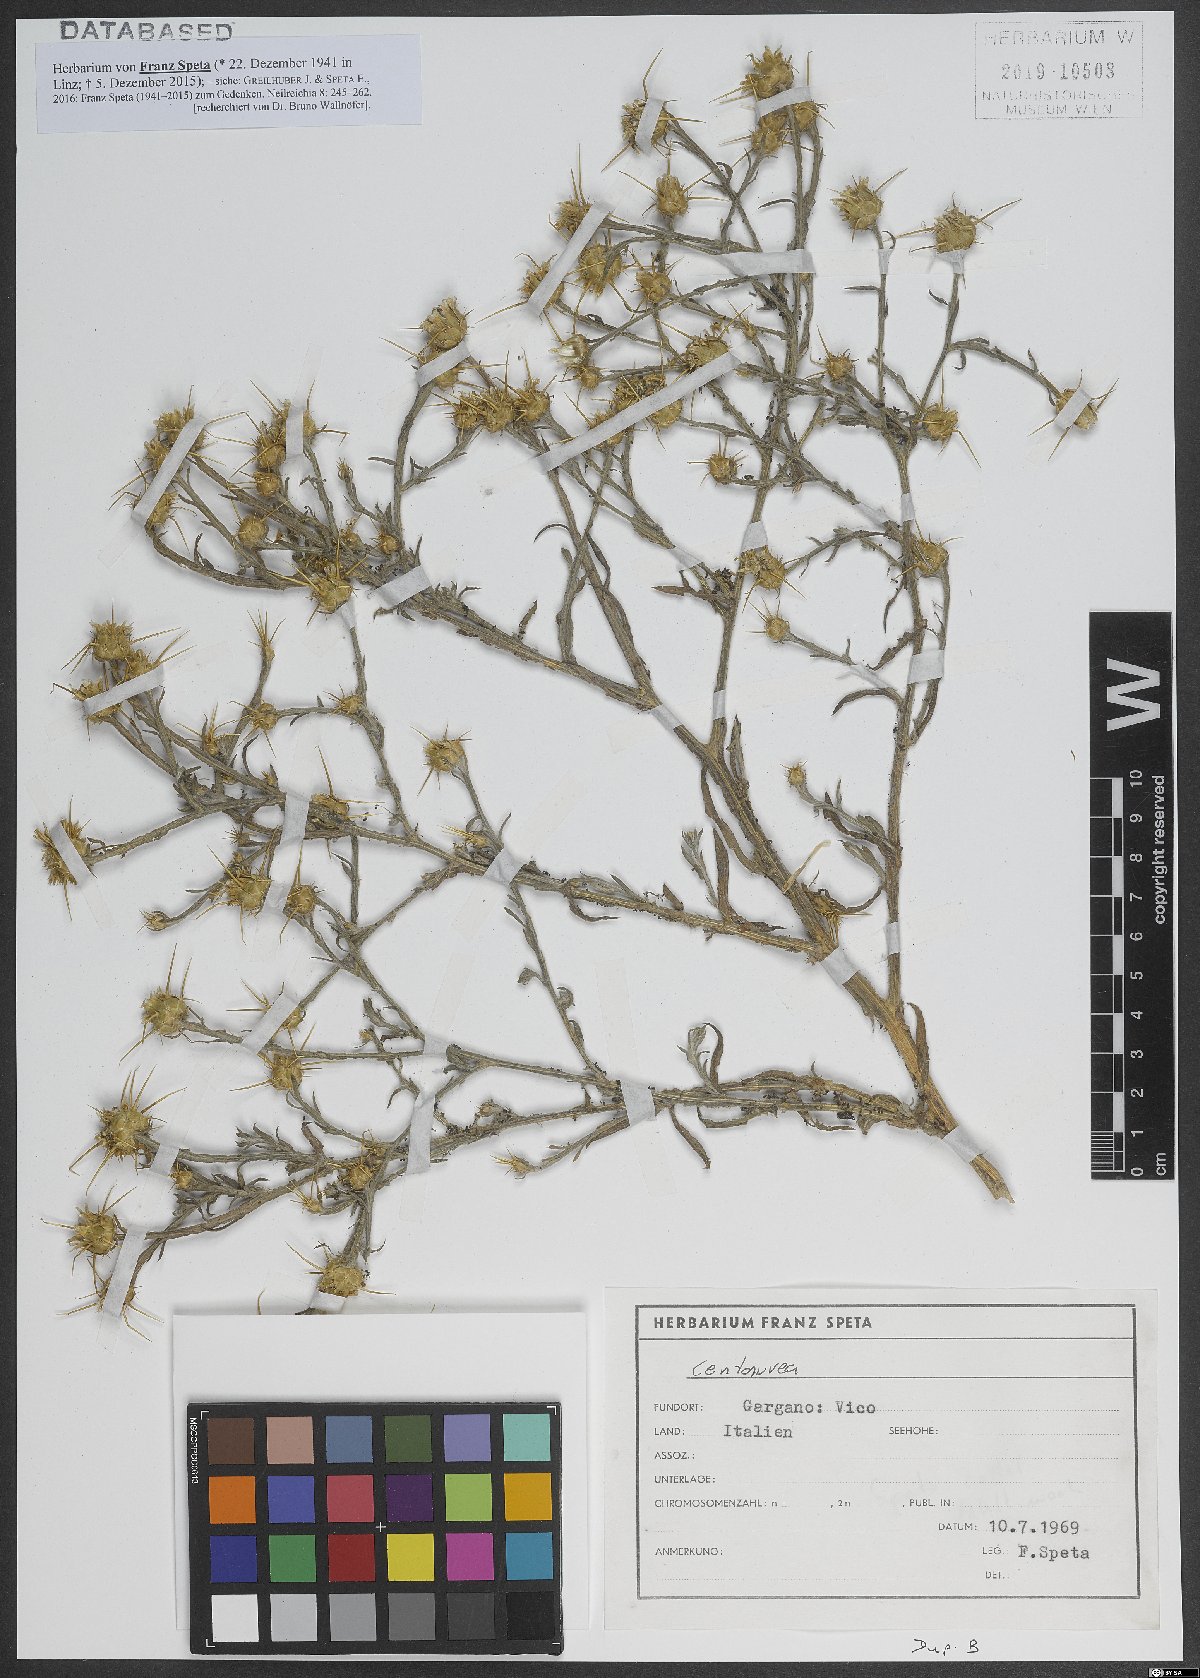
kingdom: Plantae
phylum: Tracheophyta
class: Magnoliopsida
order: Asterales
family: Asteraceae
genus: Centaurea
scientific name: Centaurea
